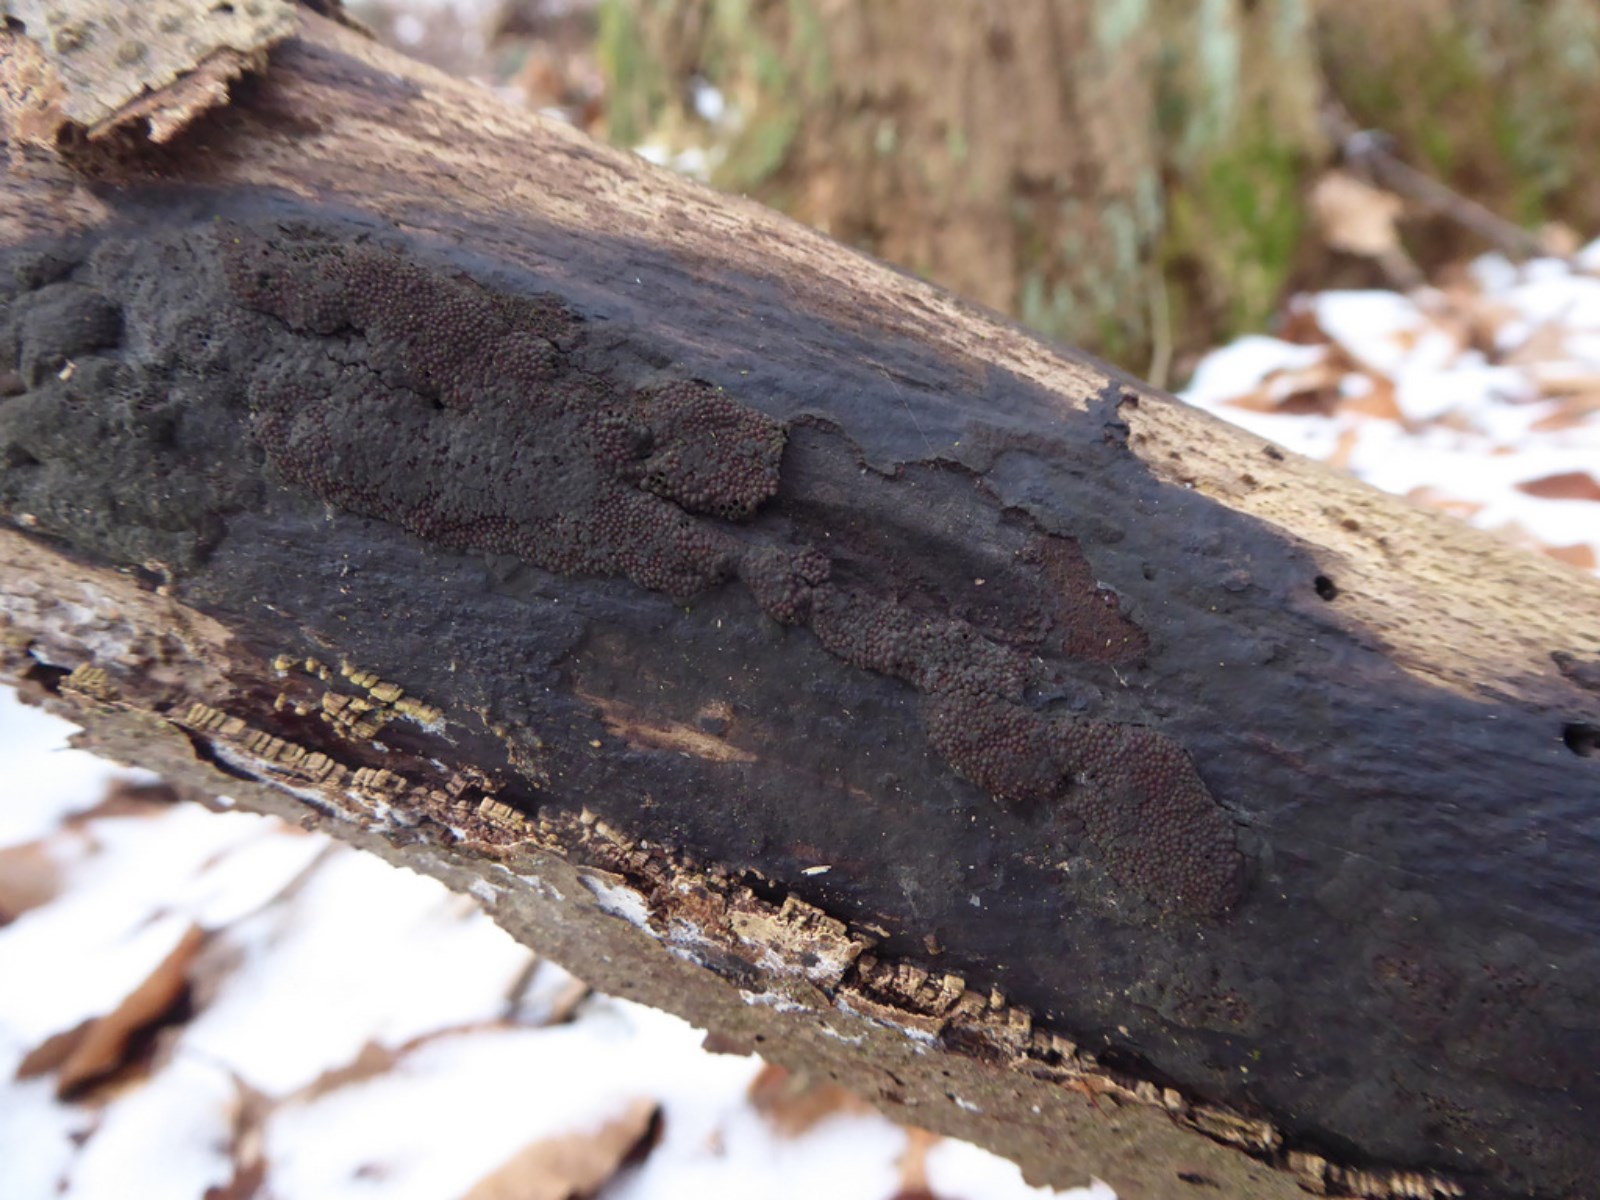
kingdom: Fungi
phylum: Ascomycota
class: Sordariomycetes
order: Xylariales
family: Diatrypaceae
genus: Eutypa
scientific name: Eutypa spinosa
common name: grov kulskorpe
